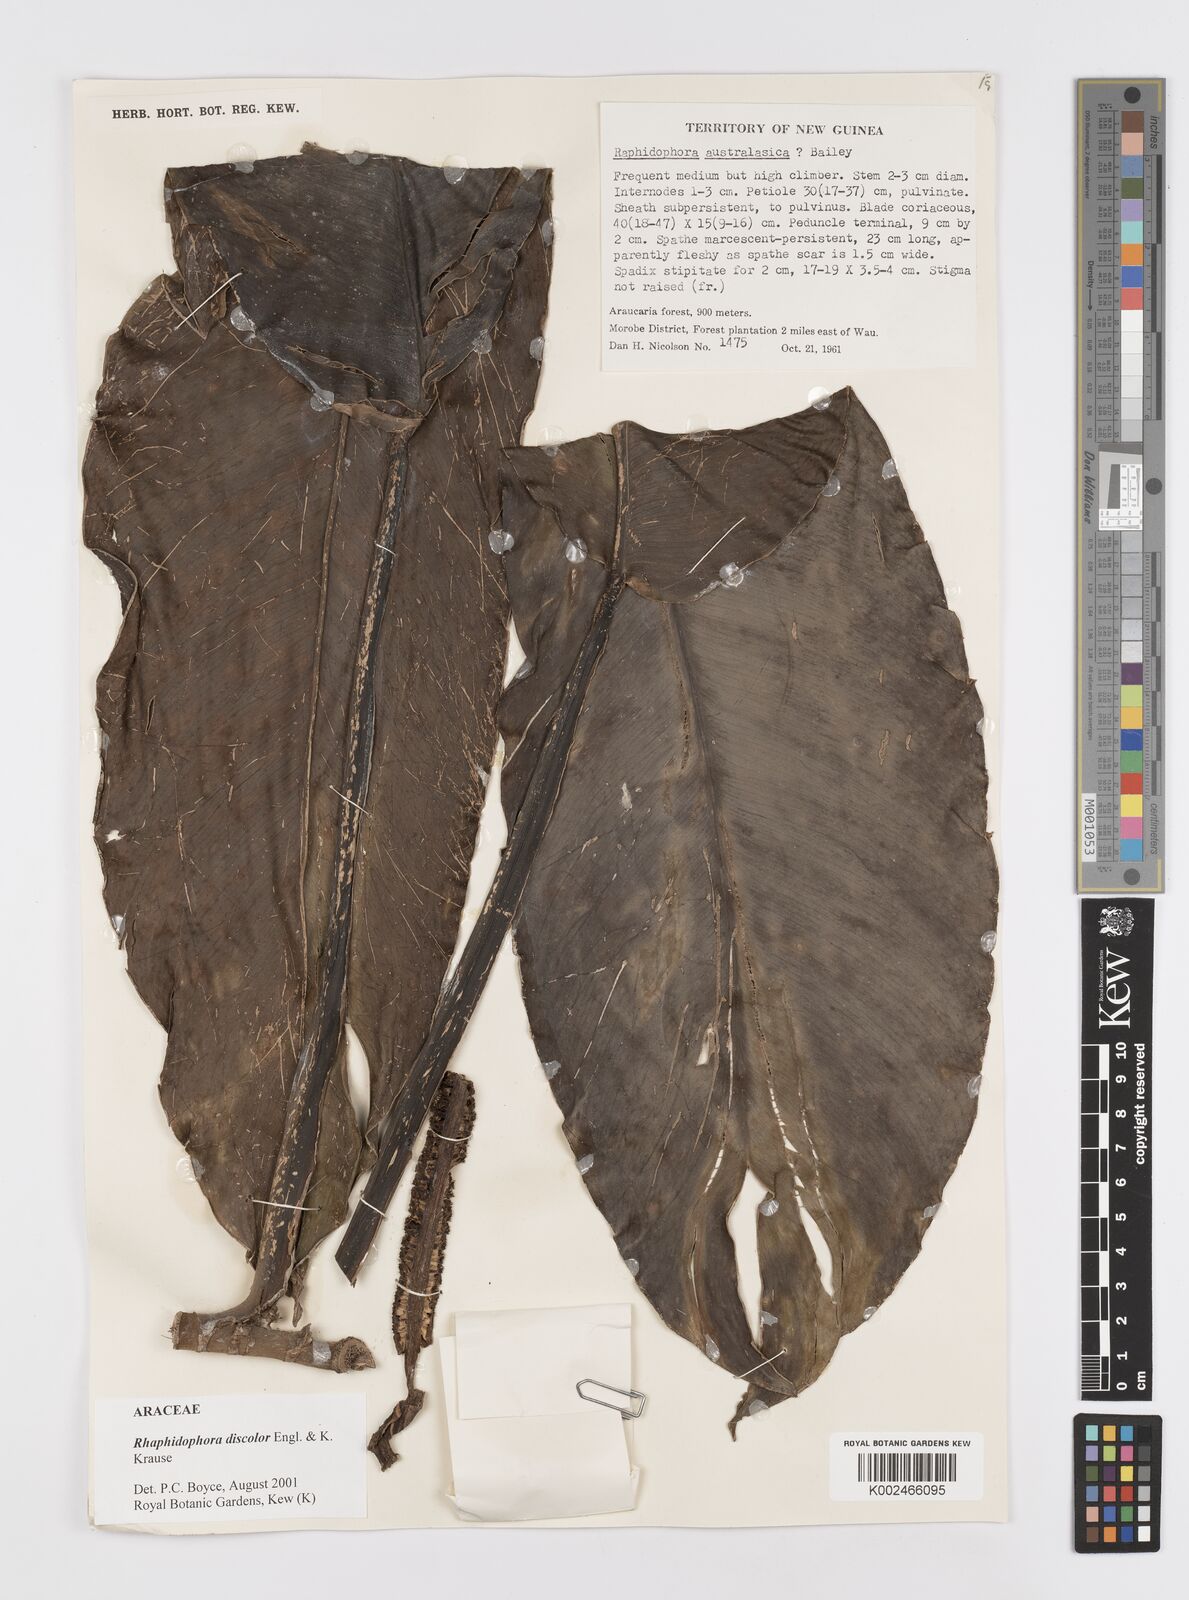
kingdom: Plantae
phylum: Tracheophyta
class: Liliopsida
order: Alismatales
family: Araceae
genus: Rhaphidophora
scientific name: Rhaphidophora discolor
